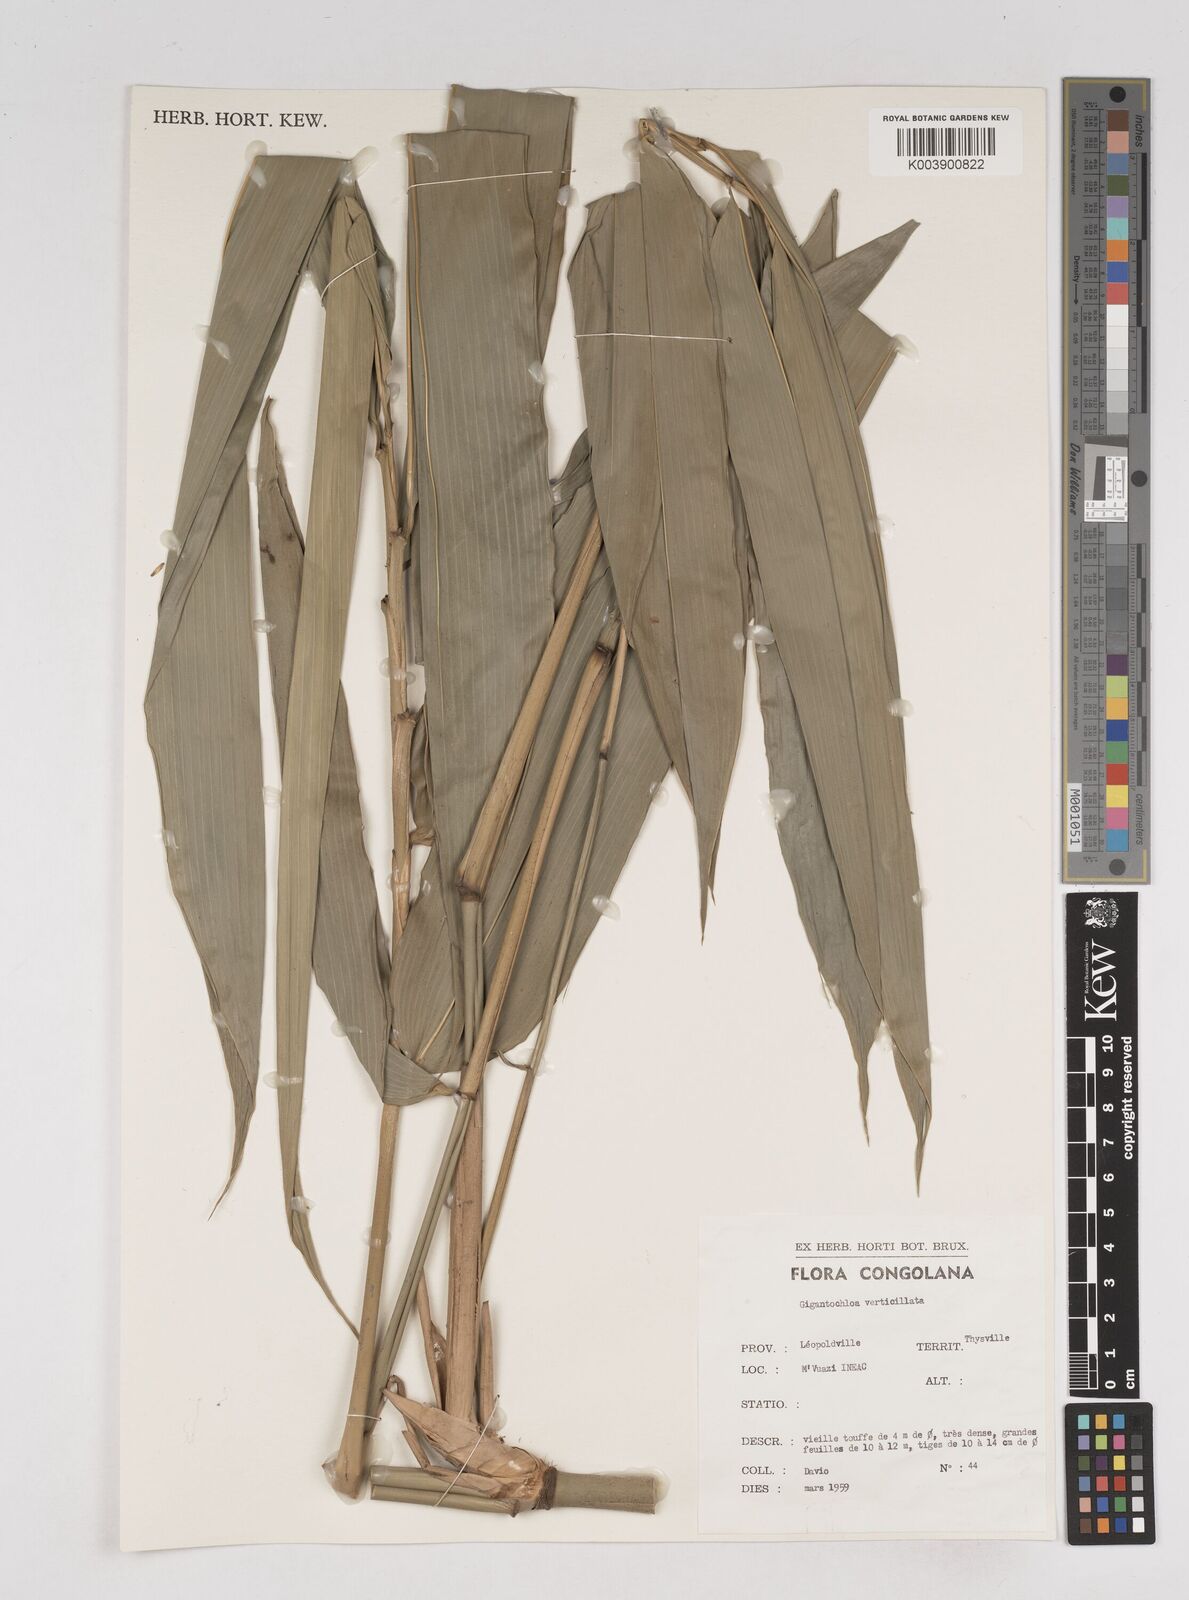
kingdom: Plantae
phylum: Tracheophyta
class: Liliopsida
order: Poales
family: Poaceae
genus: Gigantochloa
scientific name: Gigantochloa verticillata
